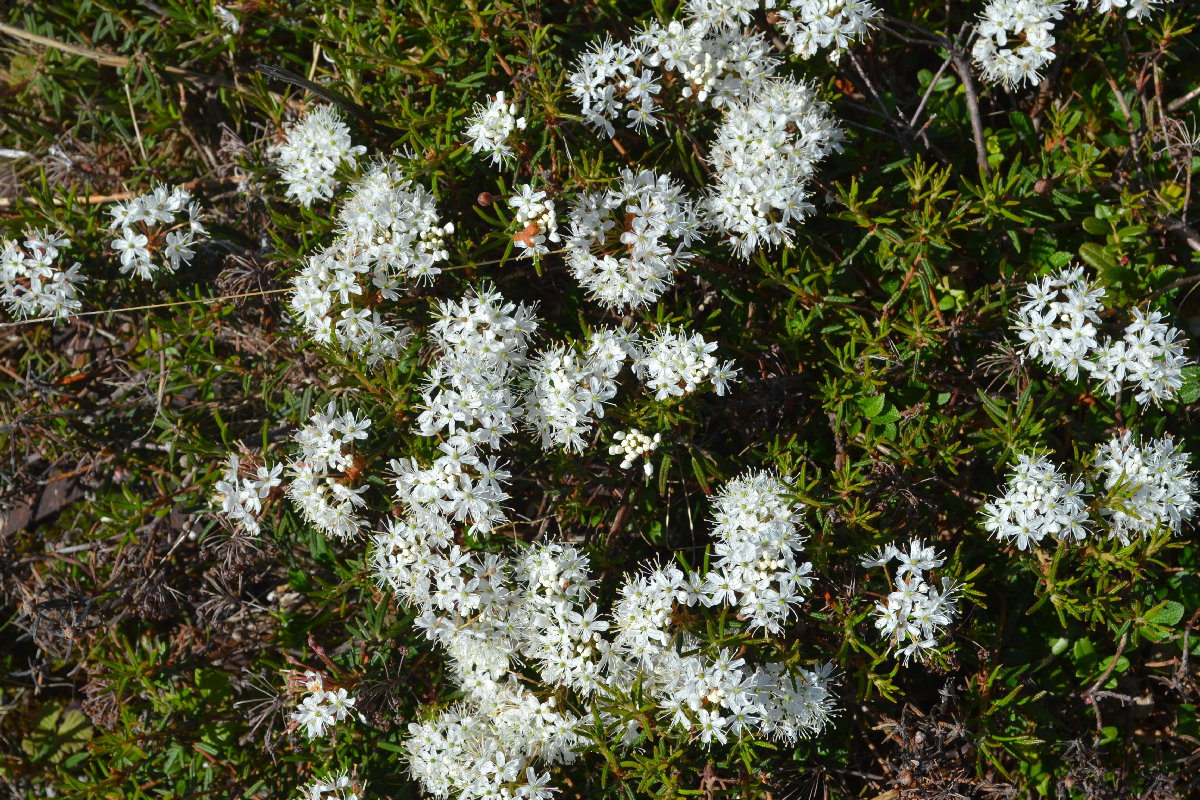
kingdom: Plantae
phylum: Tracheophyta
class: Magnoliopsida
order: Ericales
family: Ericaceae
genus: Rhododendron
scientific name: Rhododendron tomentosum
